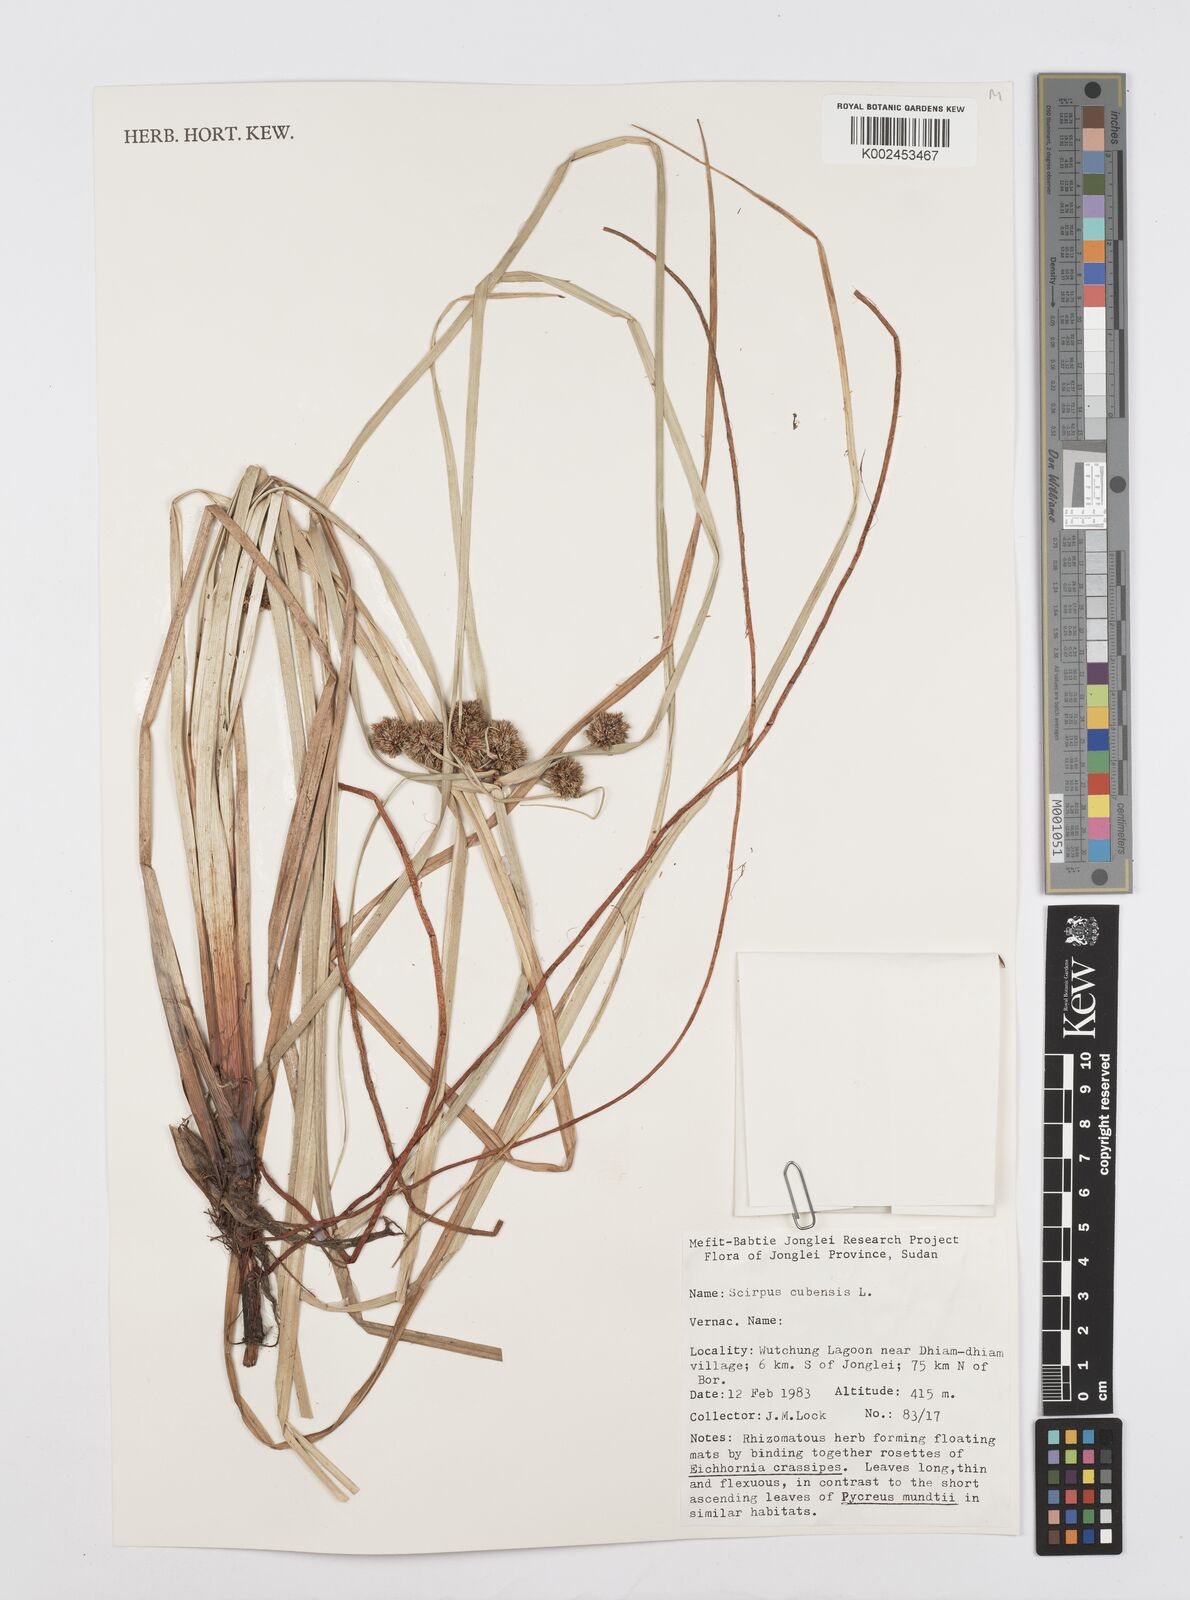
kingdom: Plantae
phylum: Tracheophyta
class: Liliopsida
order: Poales
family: Cyperaceae
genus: Cyperus
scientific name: Cyperus elegans
